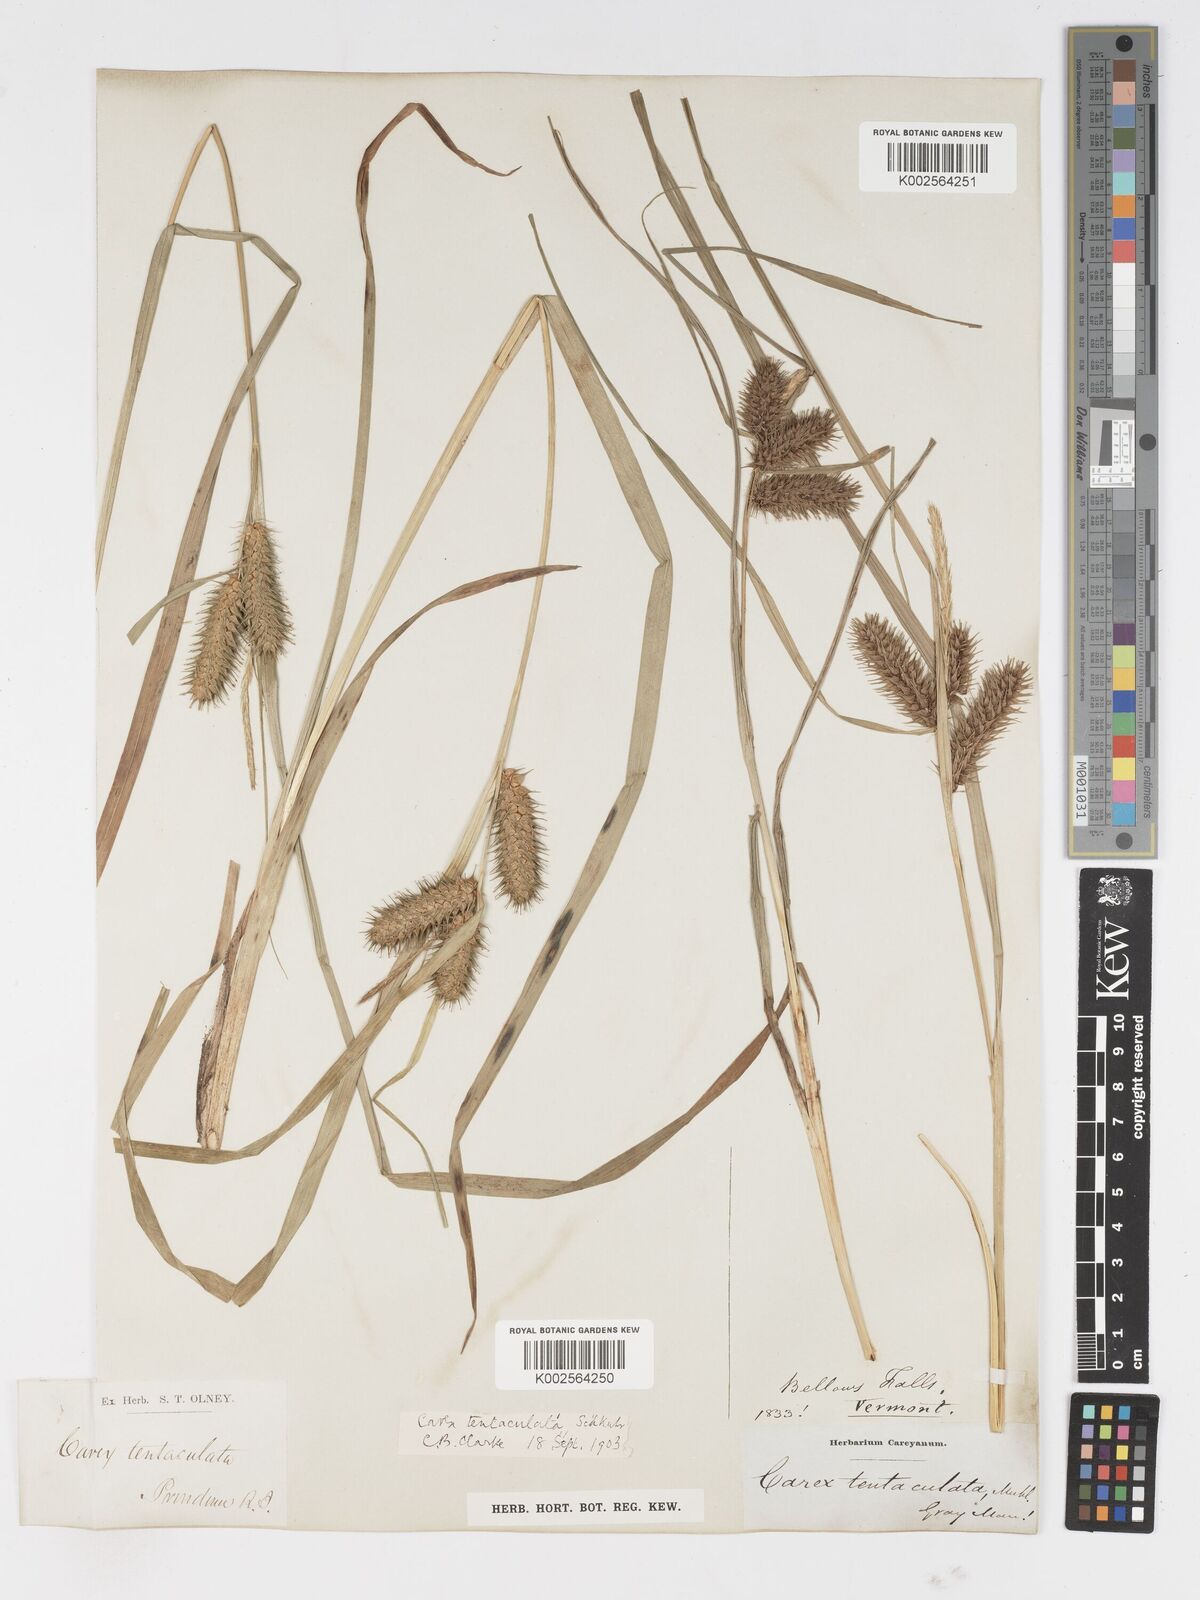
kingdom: Plantae
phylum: Tracheophyta
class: Liliopsida
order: Poales
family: Cyperaceae
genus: Carex
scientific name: Carex lurida
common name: Sallow sedge
